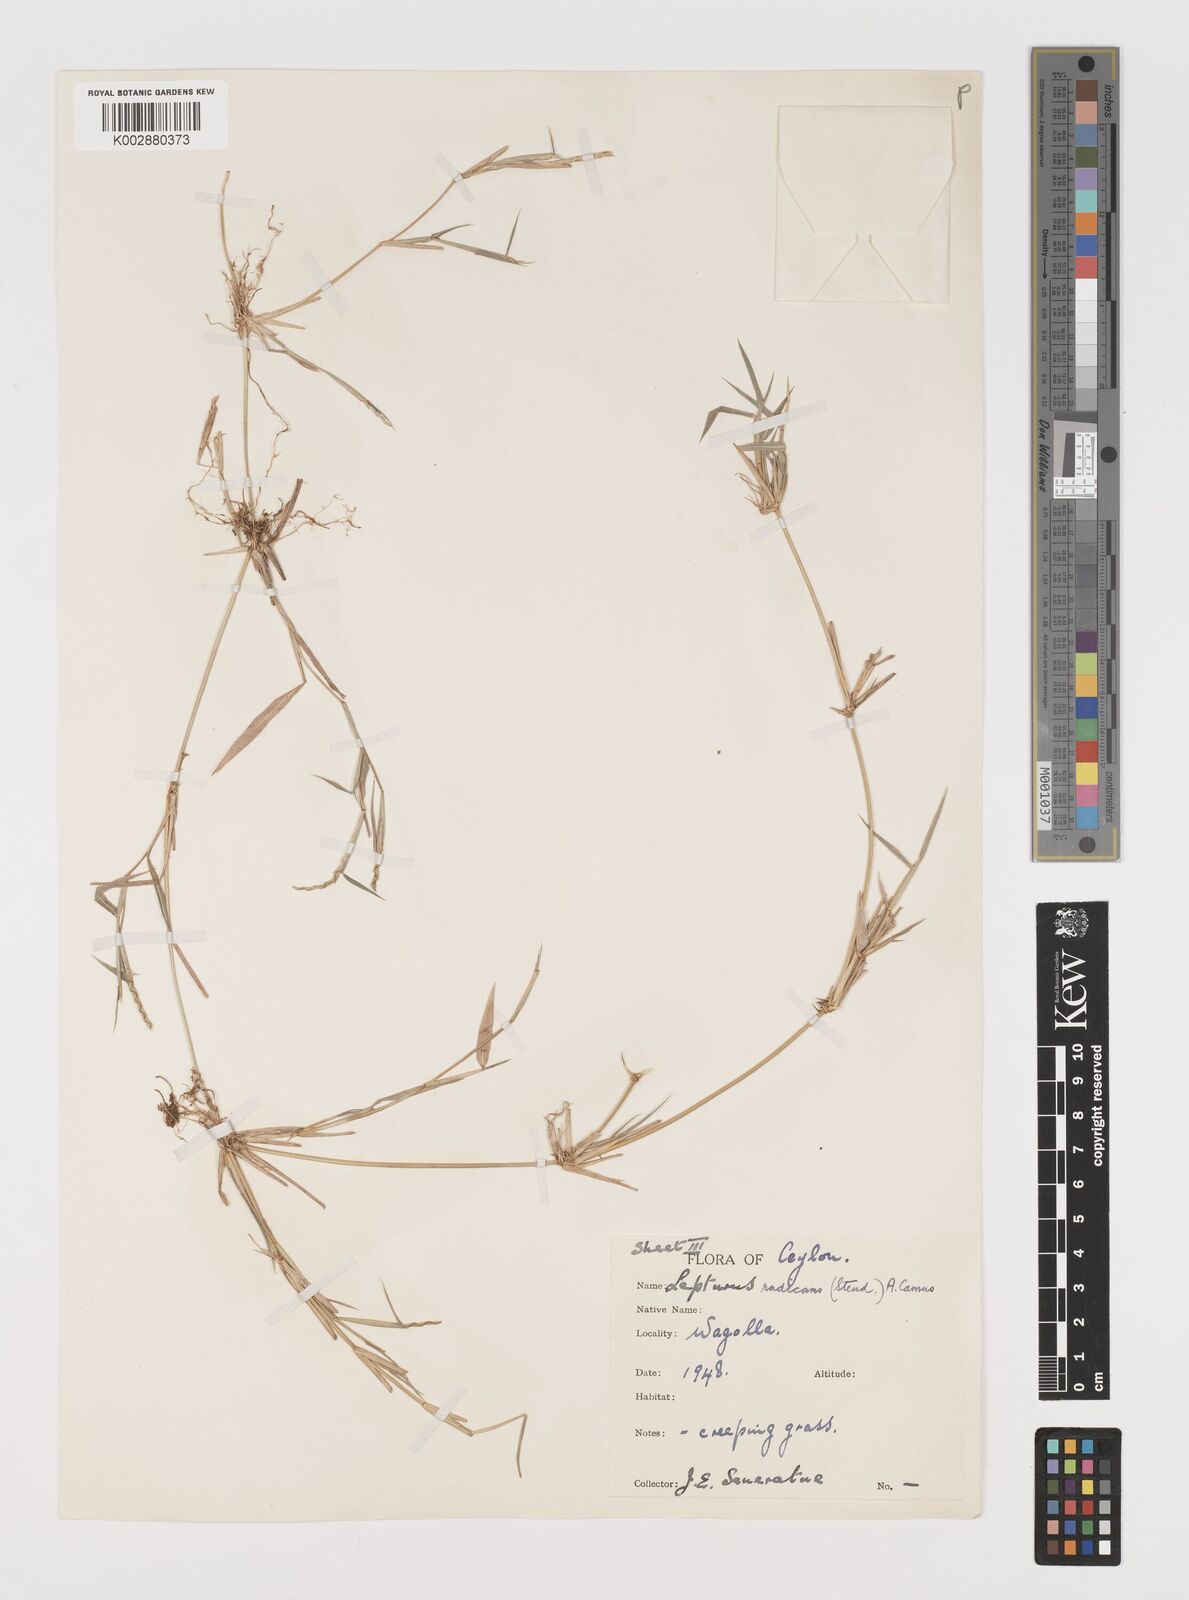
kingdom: Plantae
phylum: Tracheophyta
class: Liliopsida
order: Poales
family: Poaceae
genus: Lepturus
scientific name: Lepturus radicans
